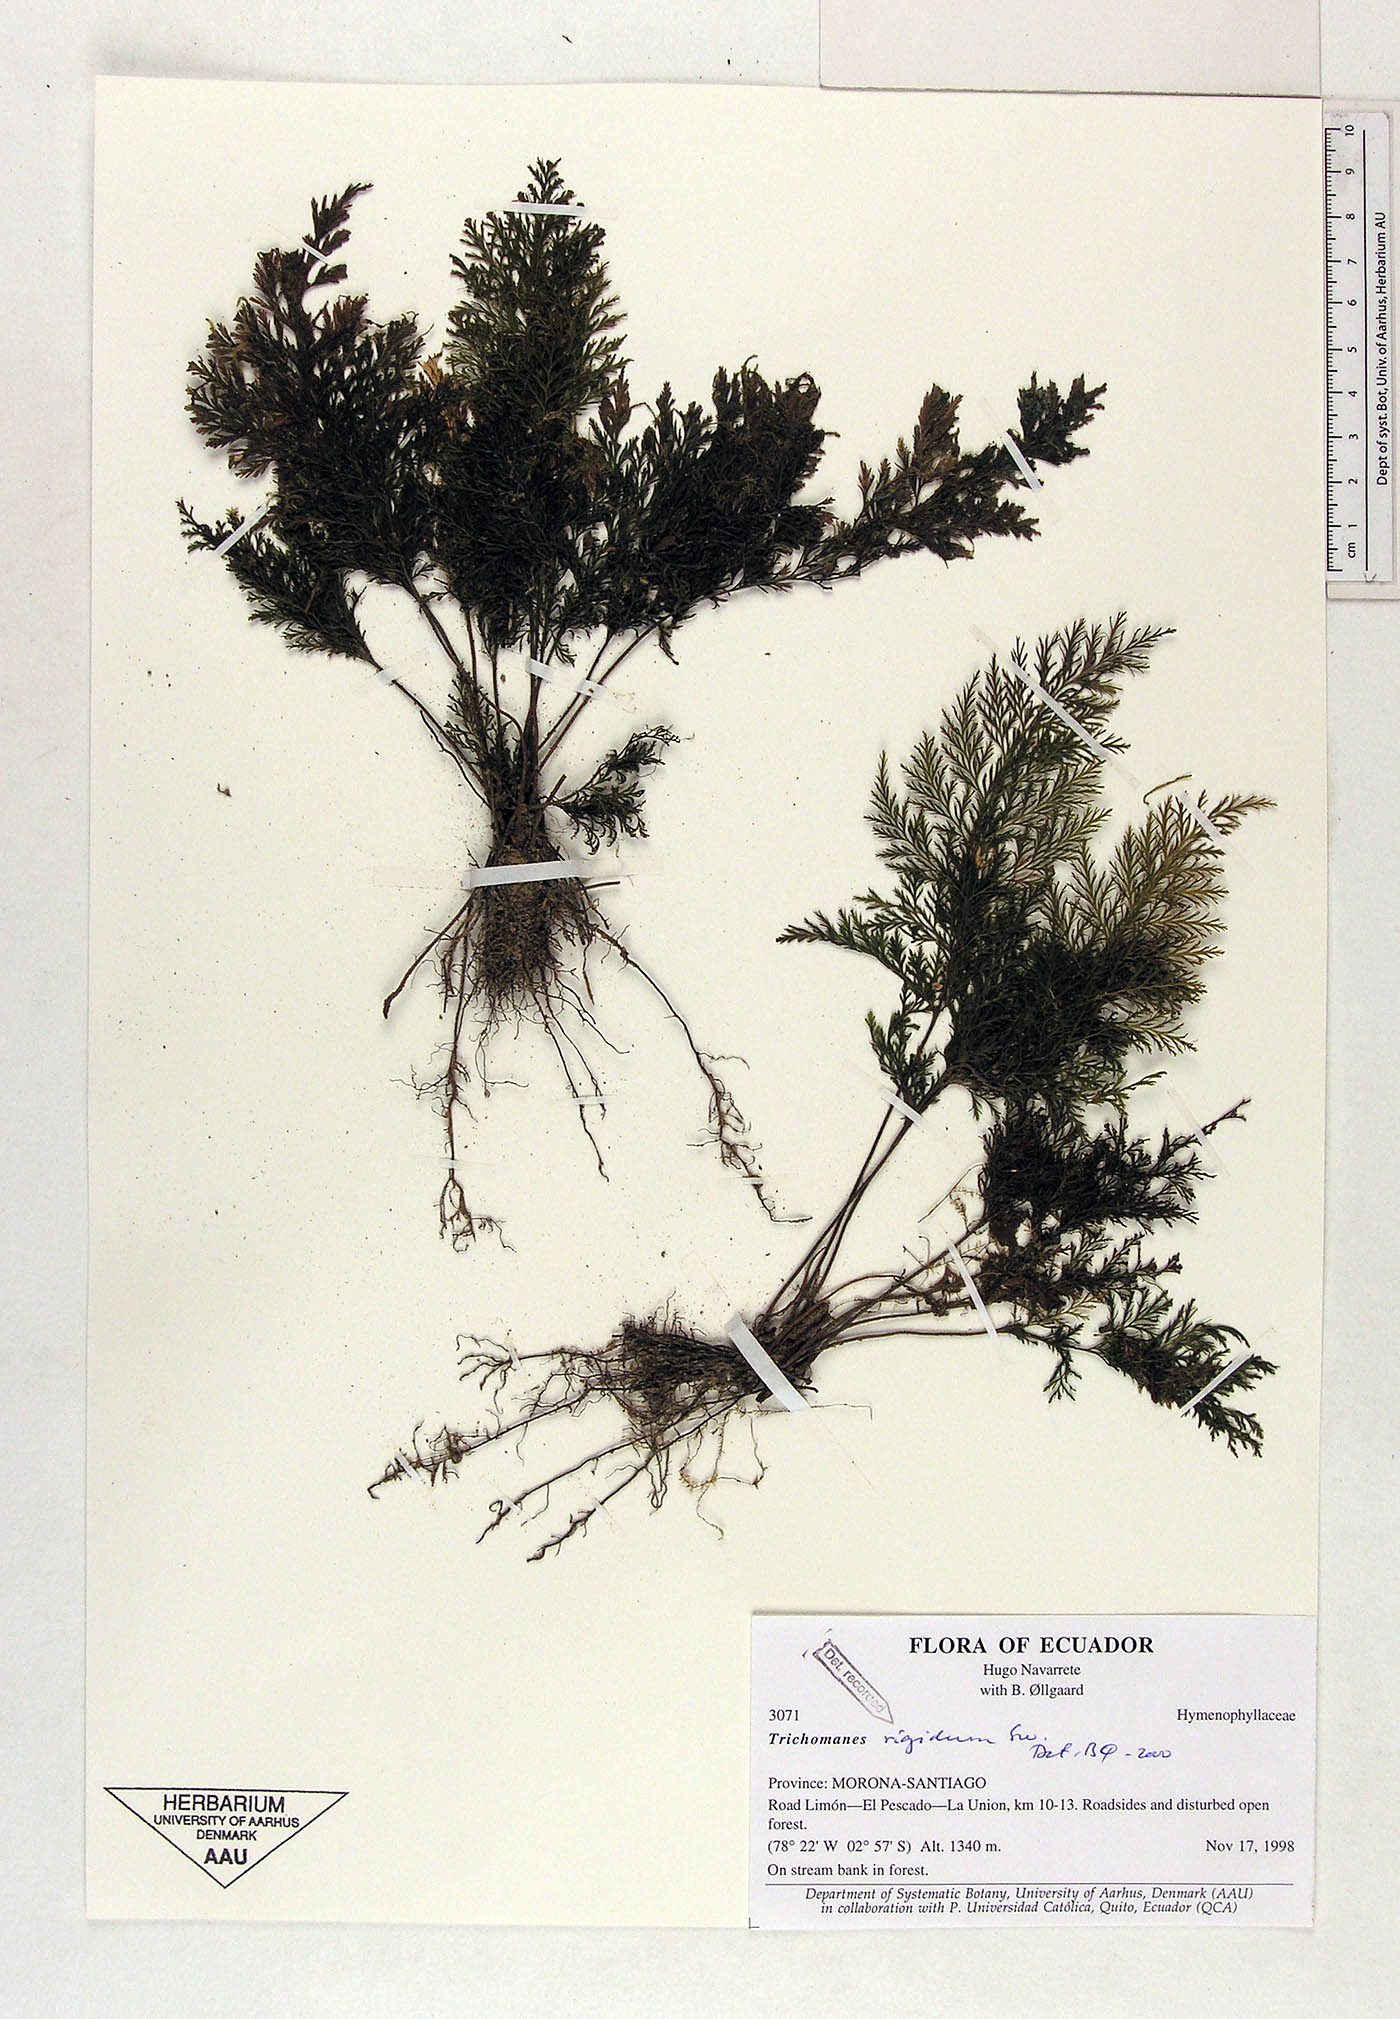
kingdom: Plantae
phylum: Tracheophyta
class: Polypodiopsida
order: Hymenophyllales
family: Hymenophyllaceae
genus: Abrodictyum
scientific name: Abrodictyum rigidum
